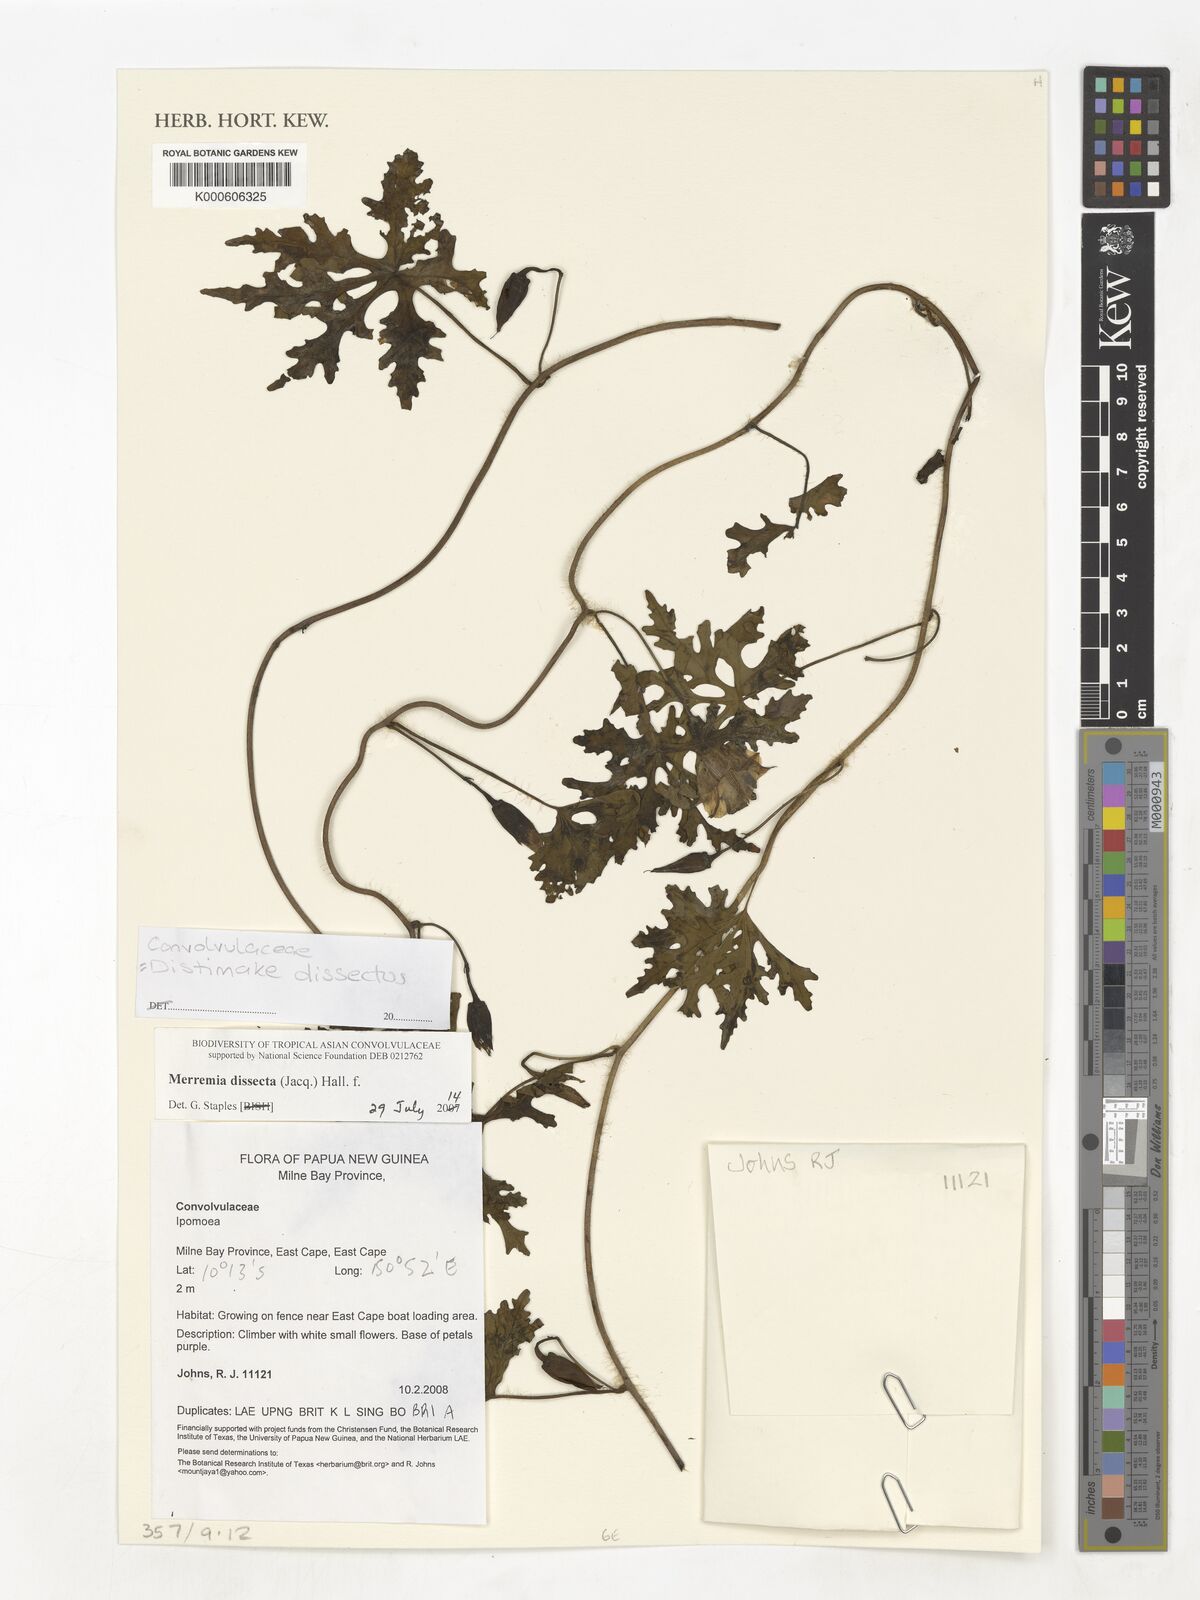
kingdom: Plantae
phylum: Tracheophyta
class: Magnoliopsida
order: Solanales
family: Convolvulaceae
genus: Distimake
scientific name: Distimake dissectus
